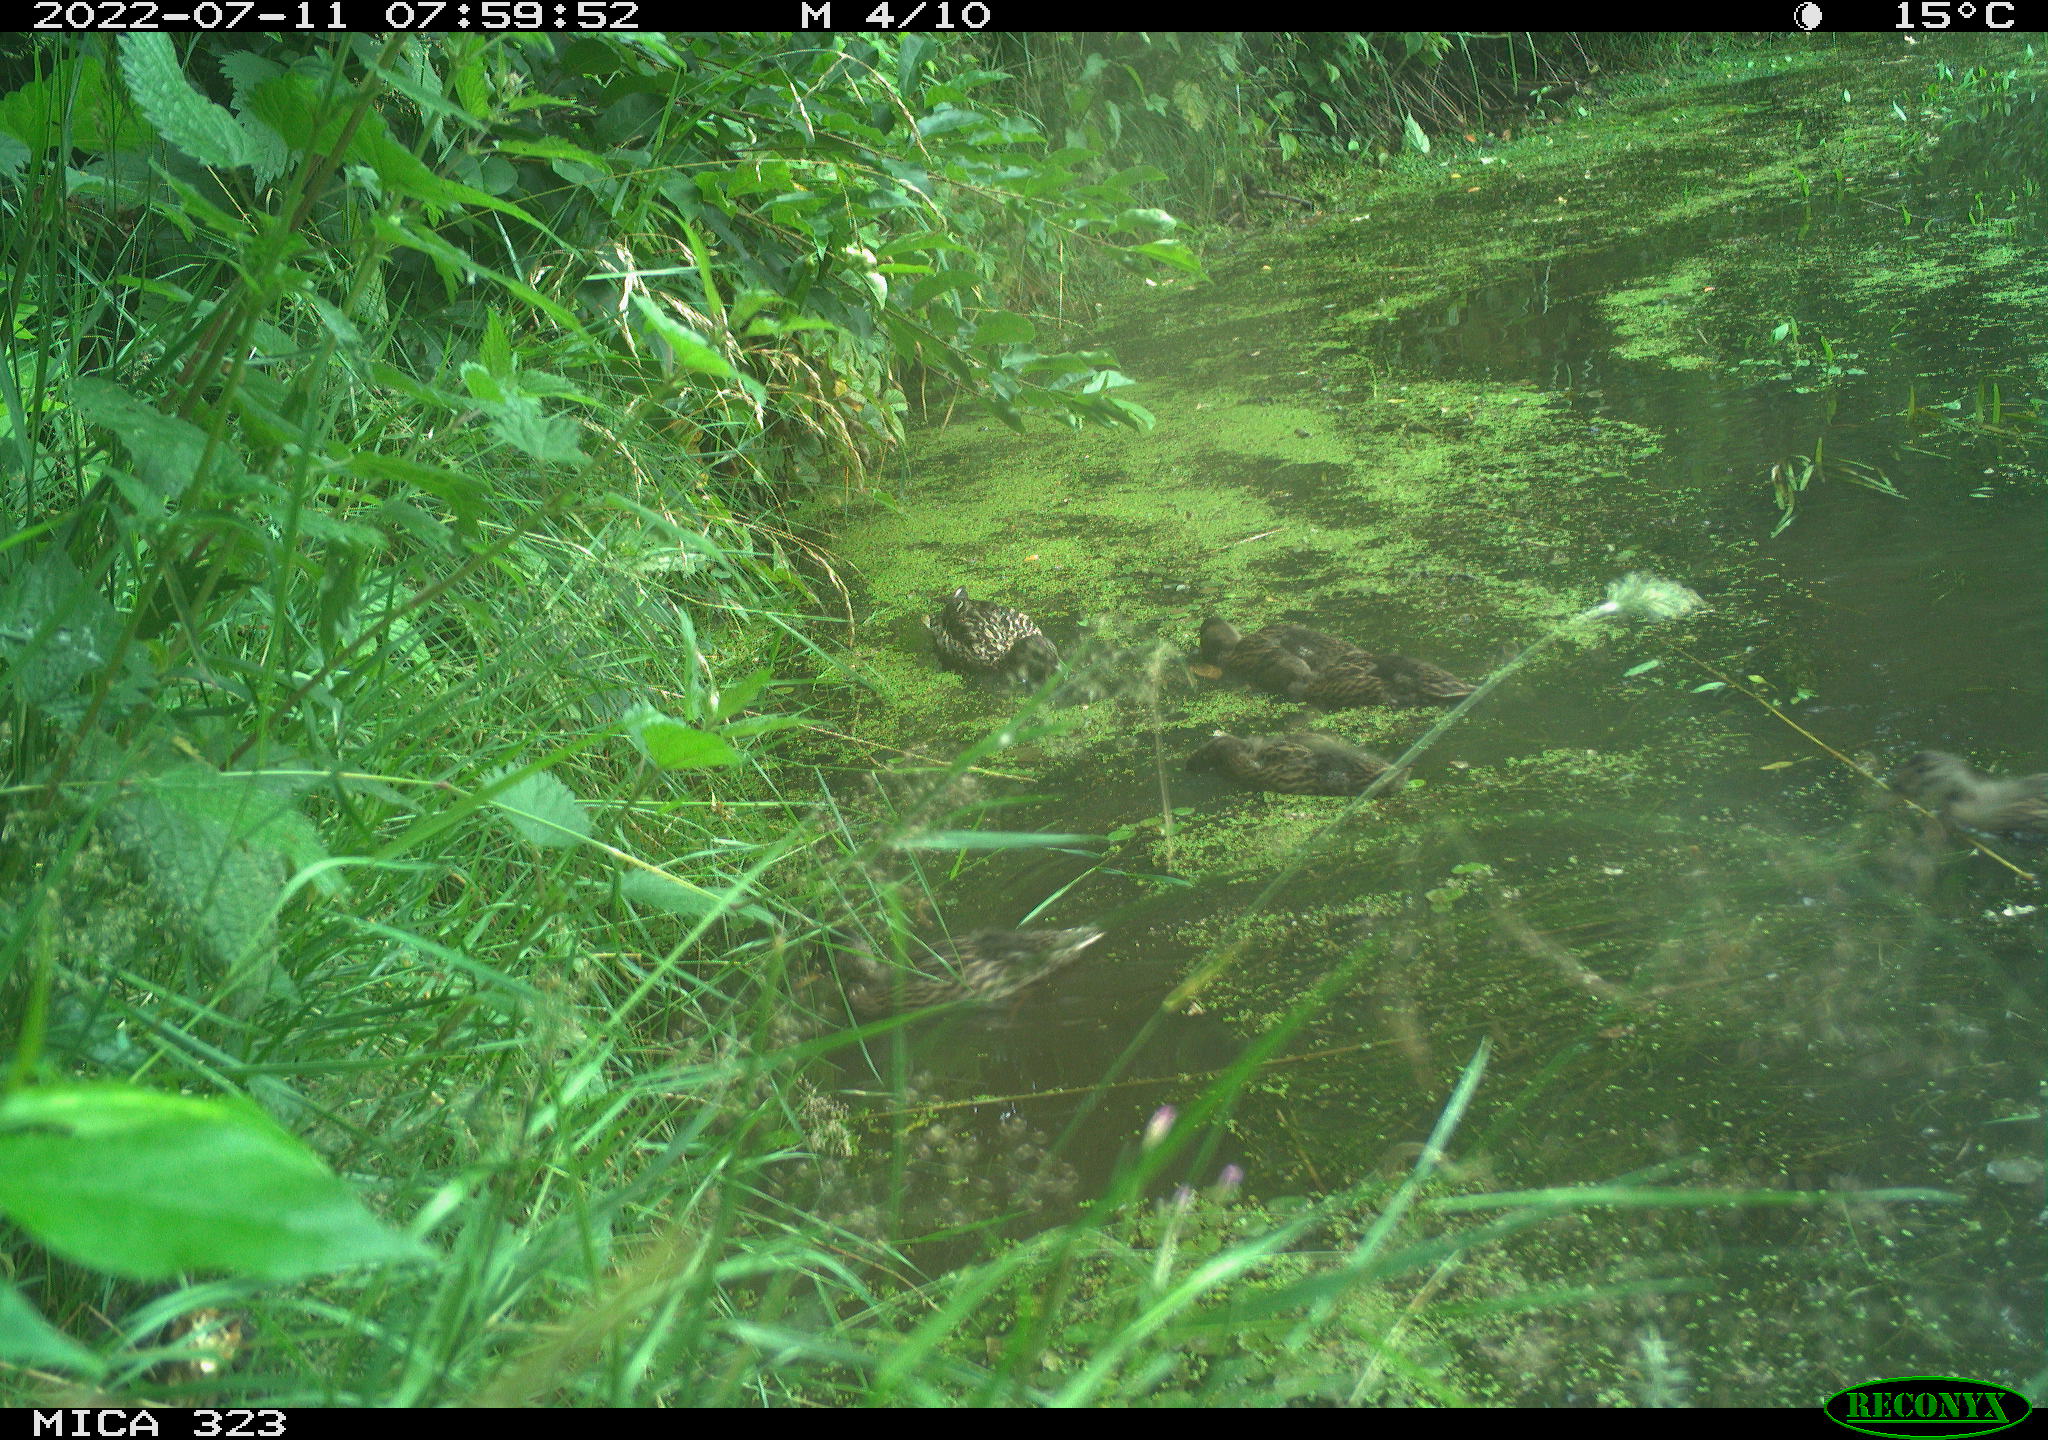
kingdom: Animalia
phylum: Chordata
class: Aves
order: Anseriformes
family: Anatidae
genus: Anas
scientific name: Anas platyrhynchos
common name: Mallard
